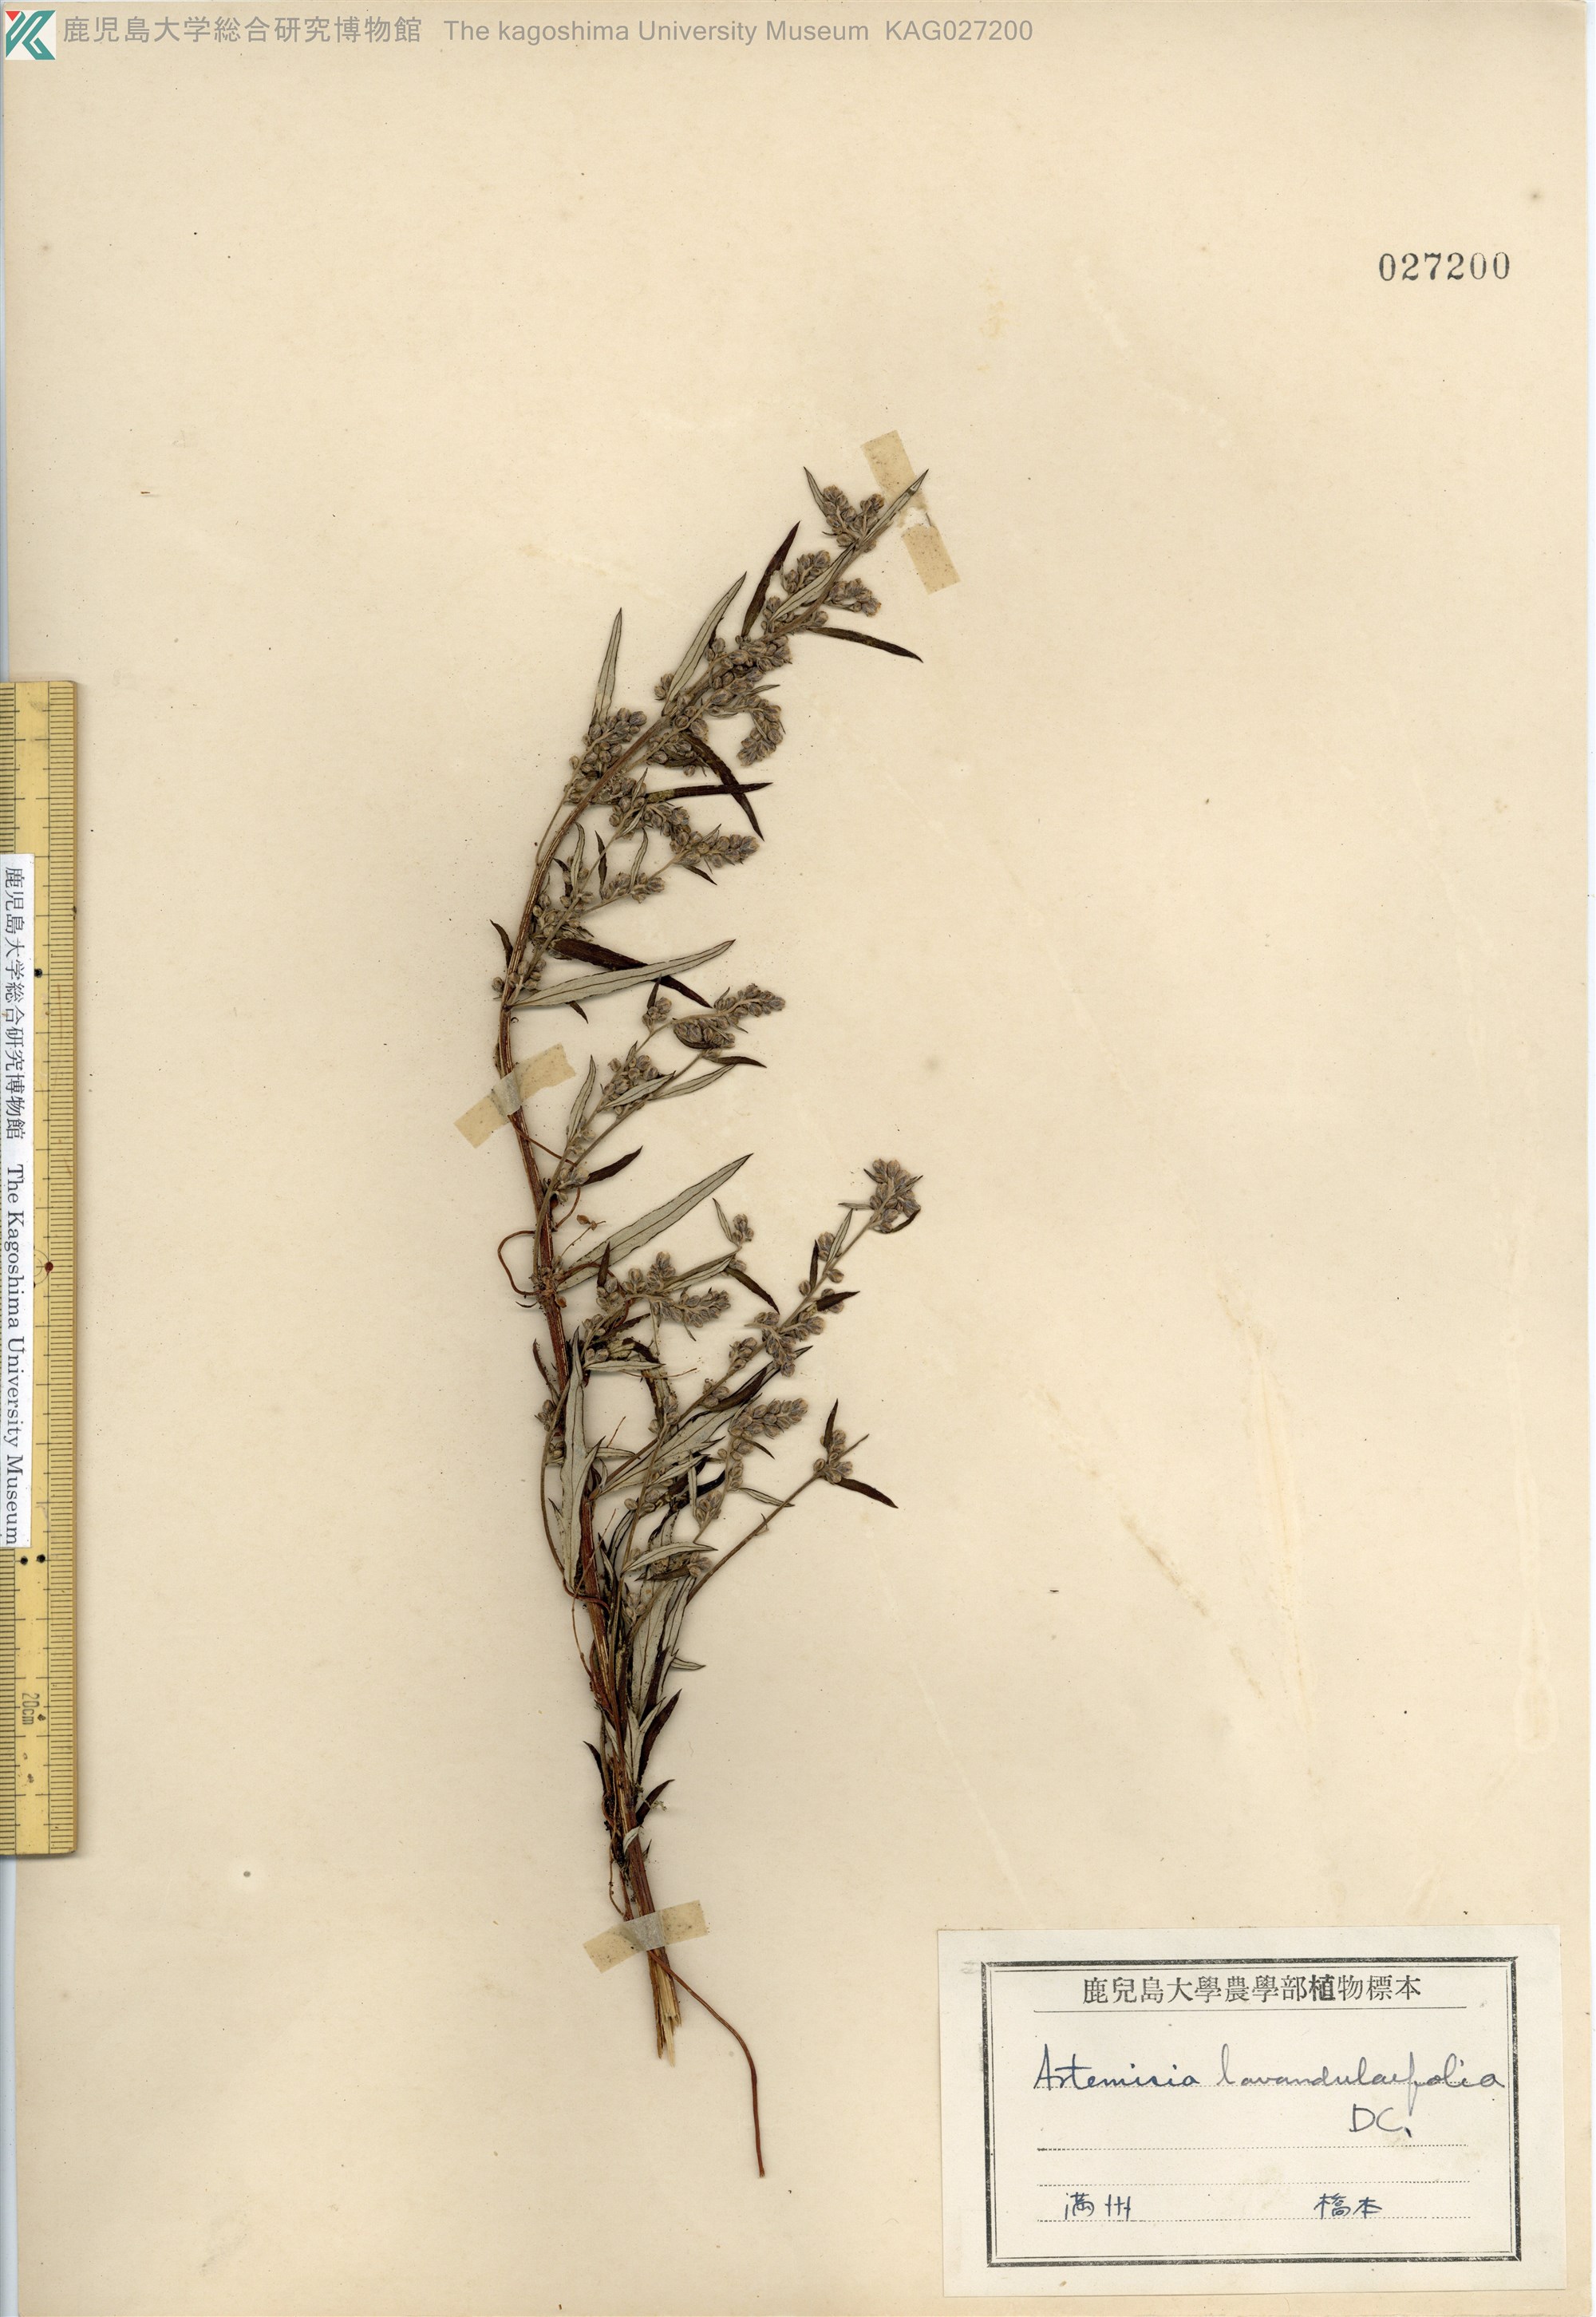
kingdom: Plantae
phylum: Tracheophyta
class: Magnoliopsida
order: Asterales
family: Asteraceae
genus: Artemisia
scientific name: Artemisia umbrosa
